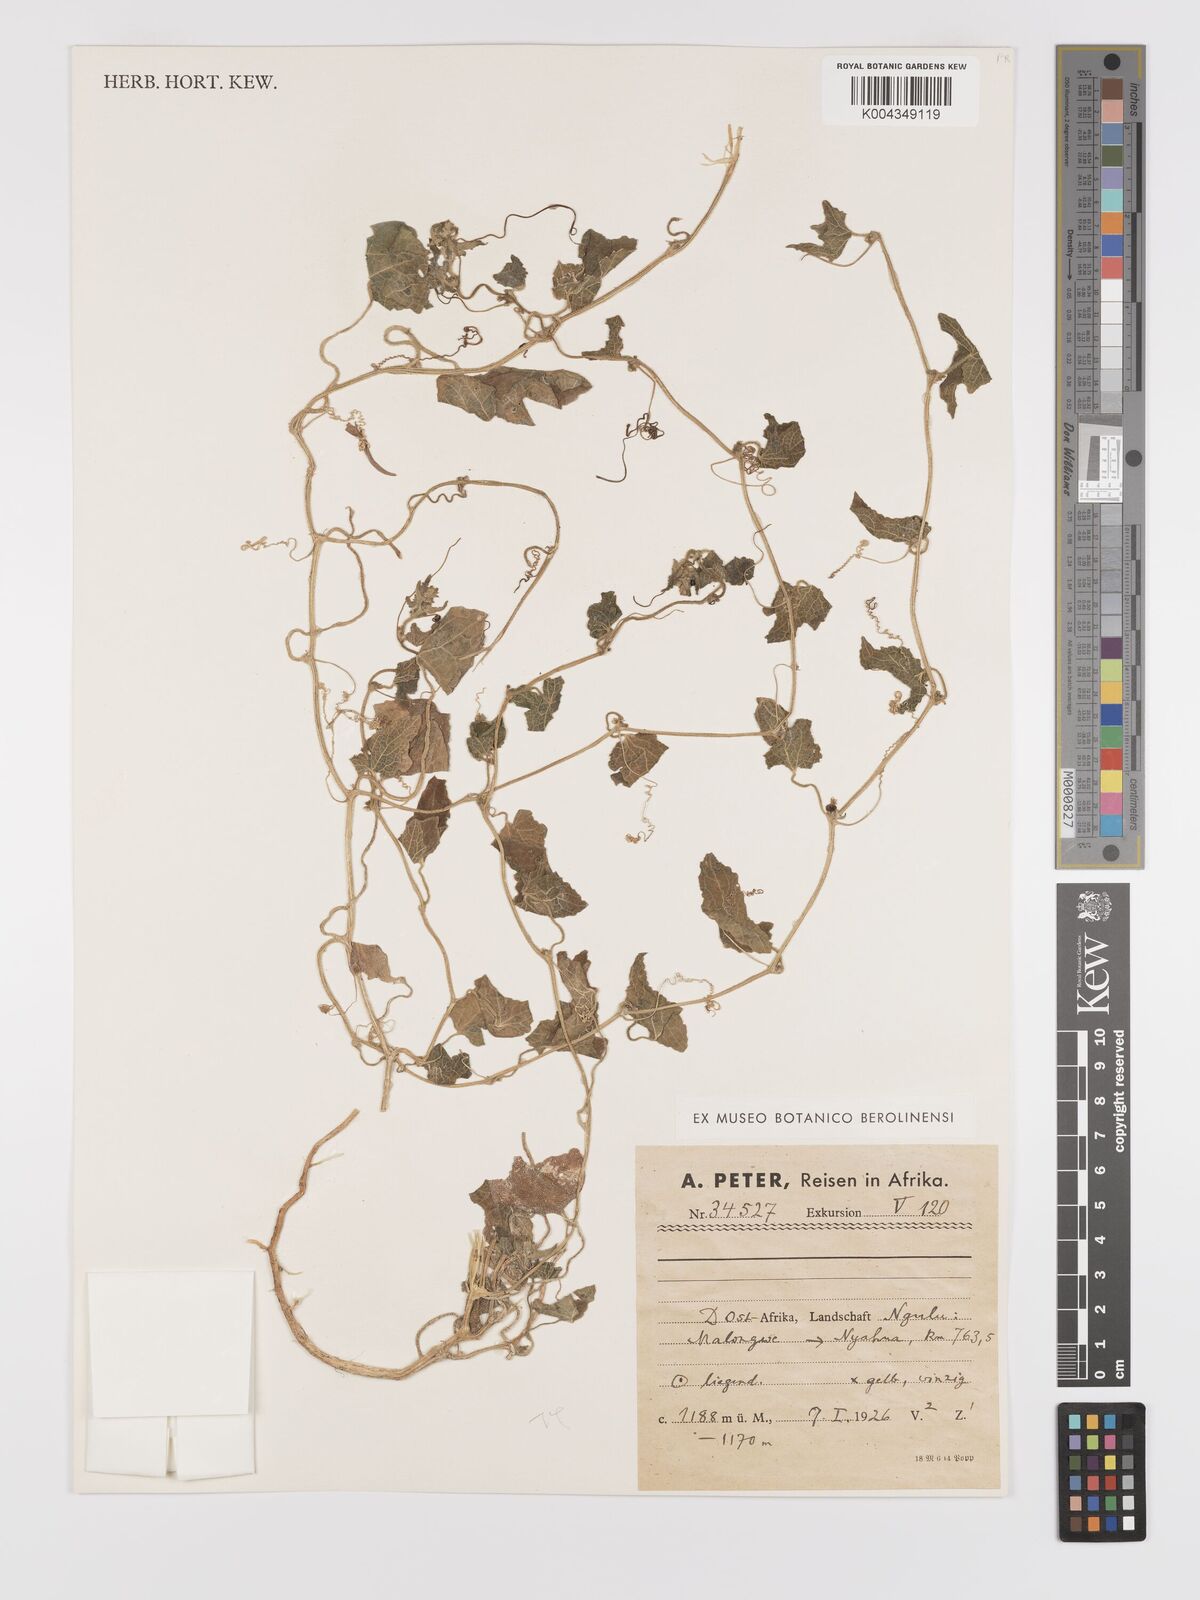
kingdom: Plantae
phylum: Tracheophyta
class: Magnoliopsida
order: Cucurbitales
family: Cucurbitaceae
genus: Cucumis
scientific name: Cucumis maderaspatanus
